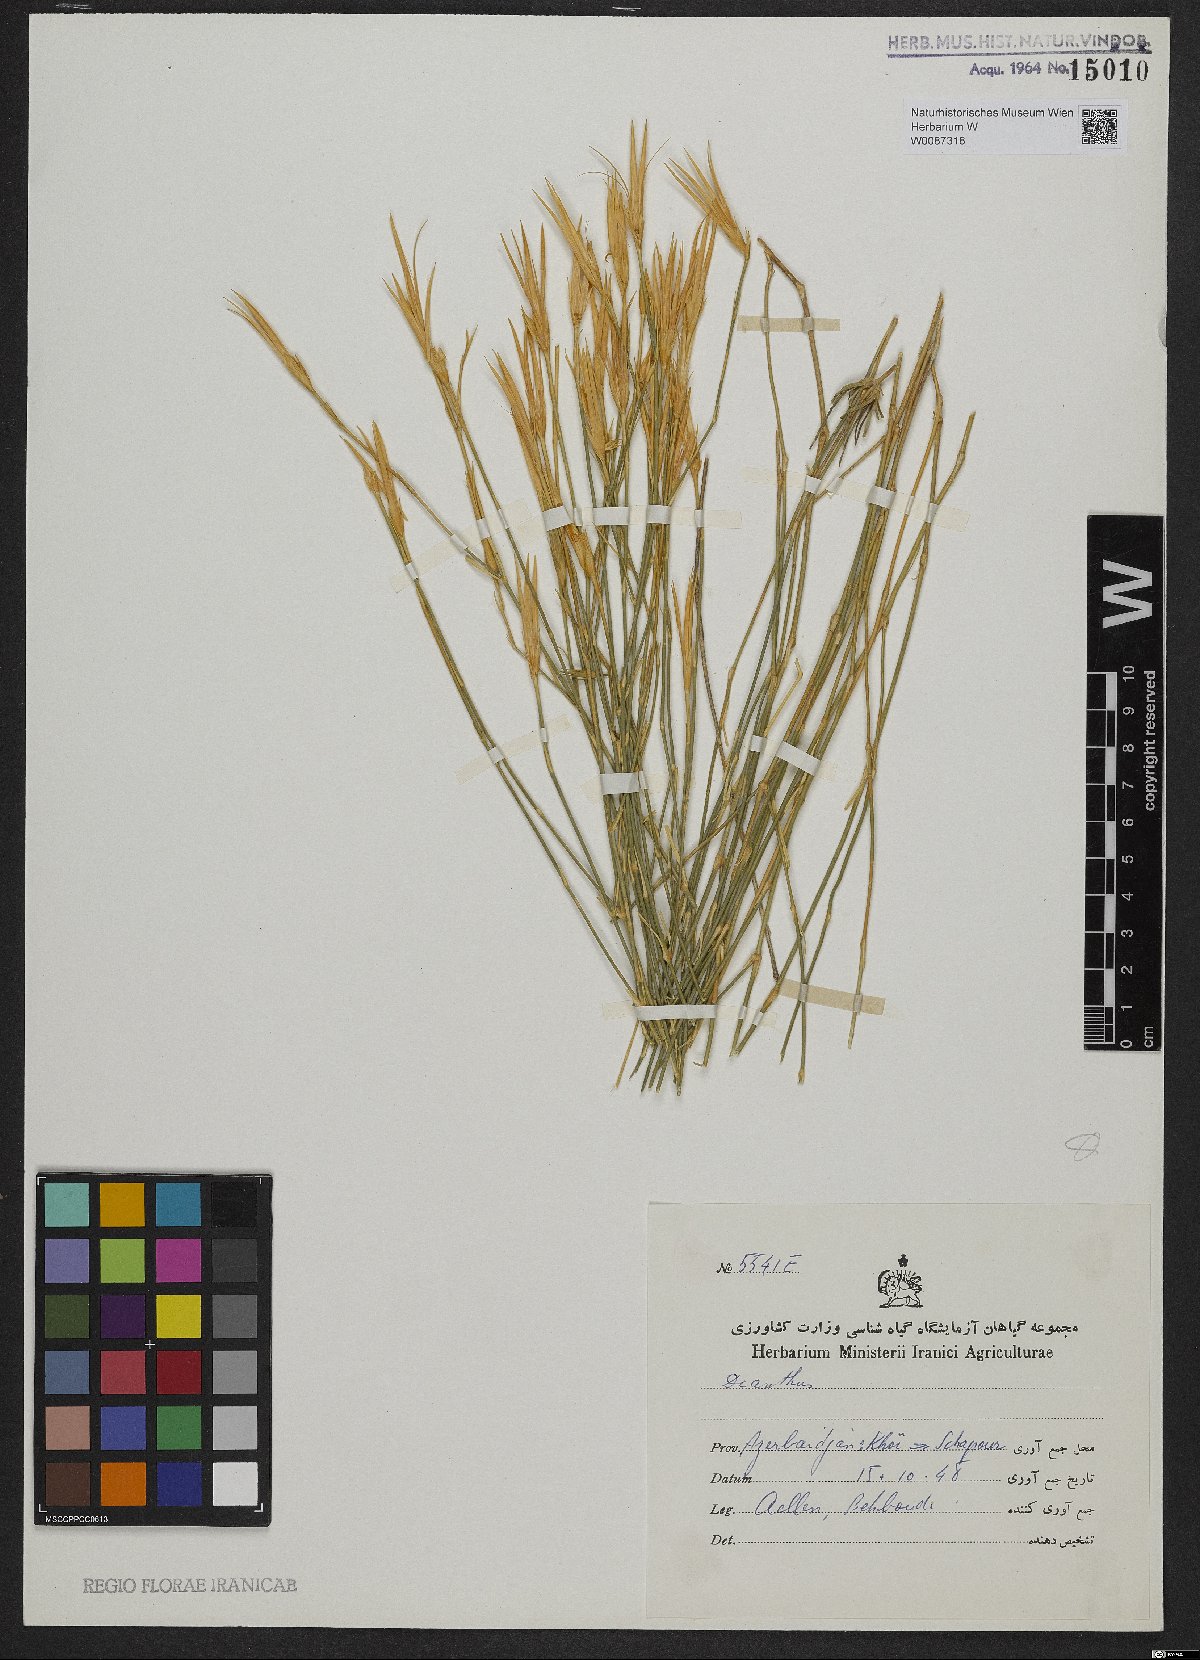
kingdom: Plantae
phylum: Tracheophyta
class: Magnoliopsida
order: Caryophyllales
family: Caryophyllaceae
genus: Dianthus
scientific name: Dianthus
